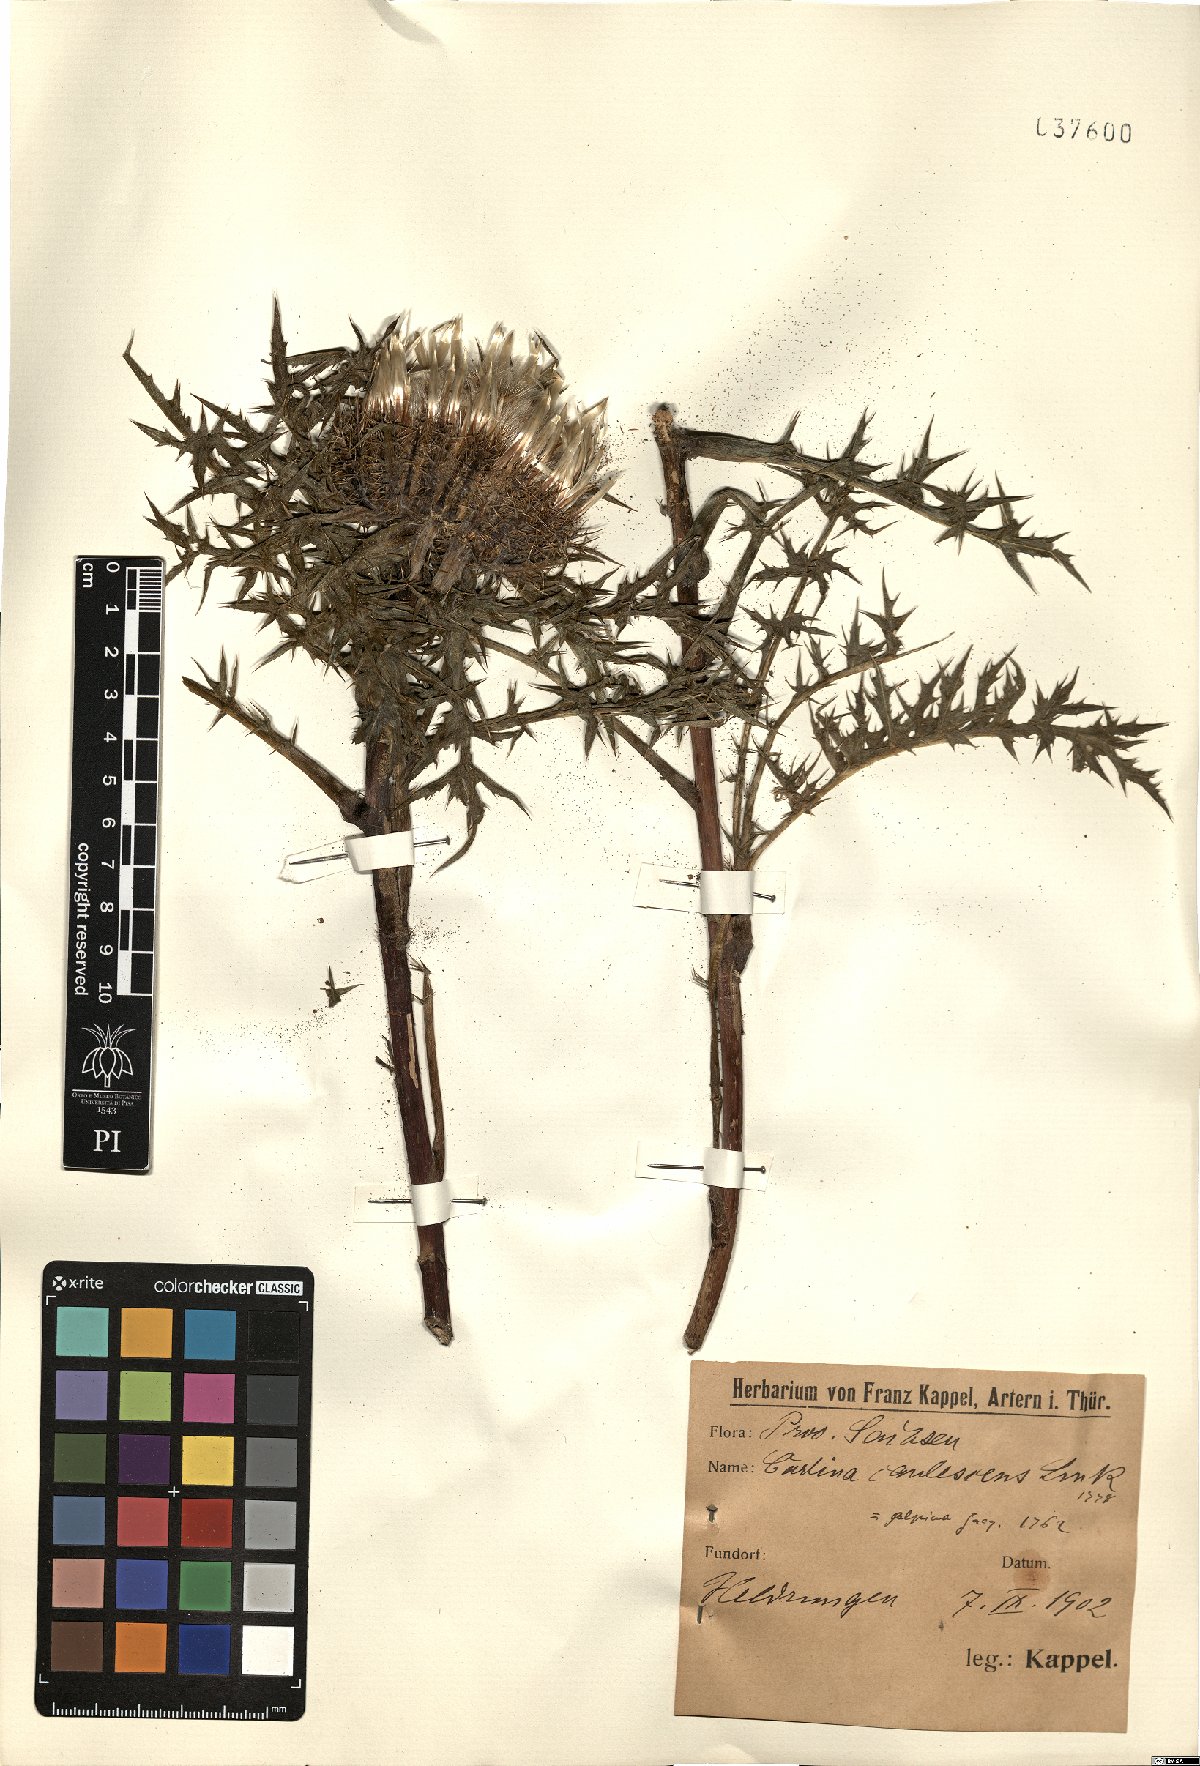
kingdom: Plantae
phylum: Tracheophyta
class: Magnoliopsida
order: Asterales
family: Asteraceae
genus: Carlina
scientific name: Carlina acaulis
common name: Stemless carline thistle
